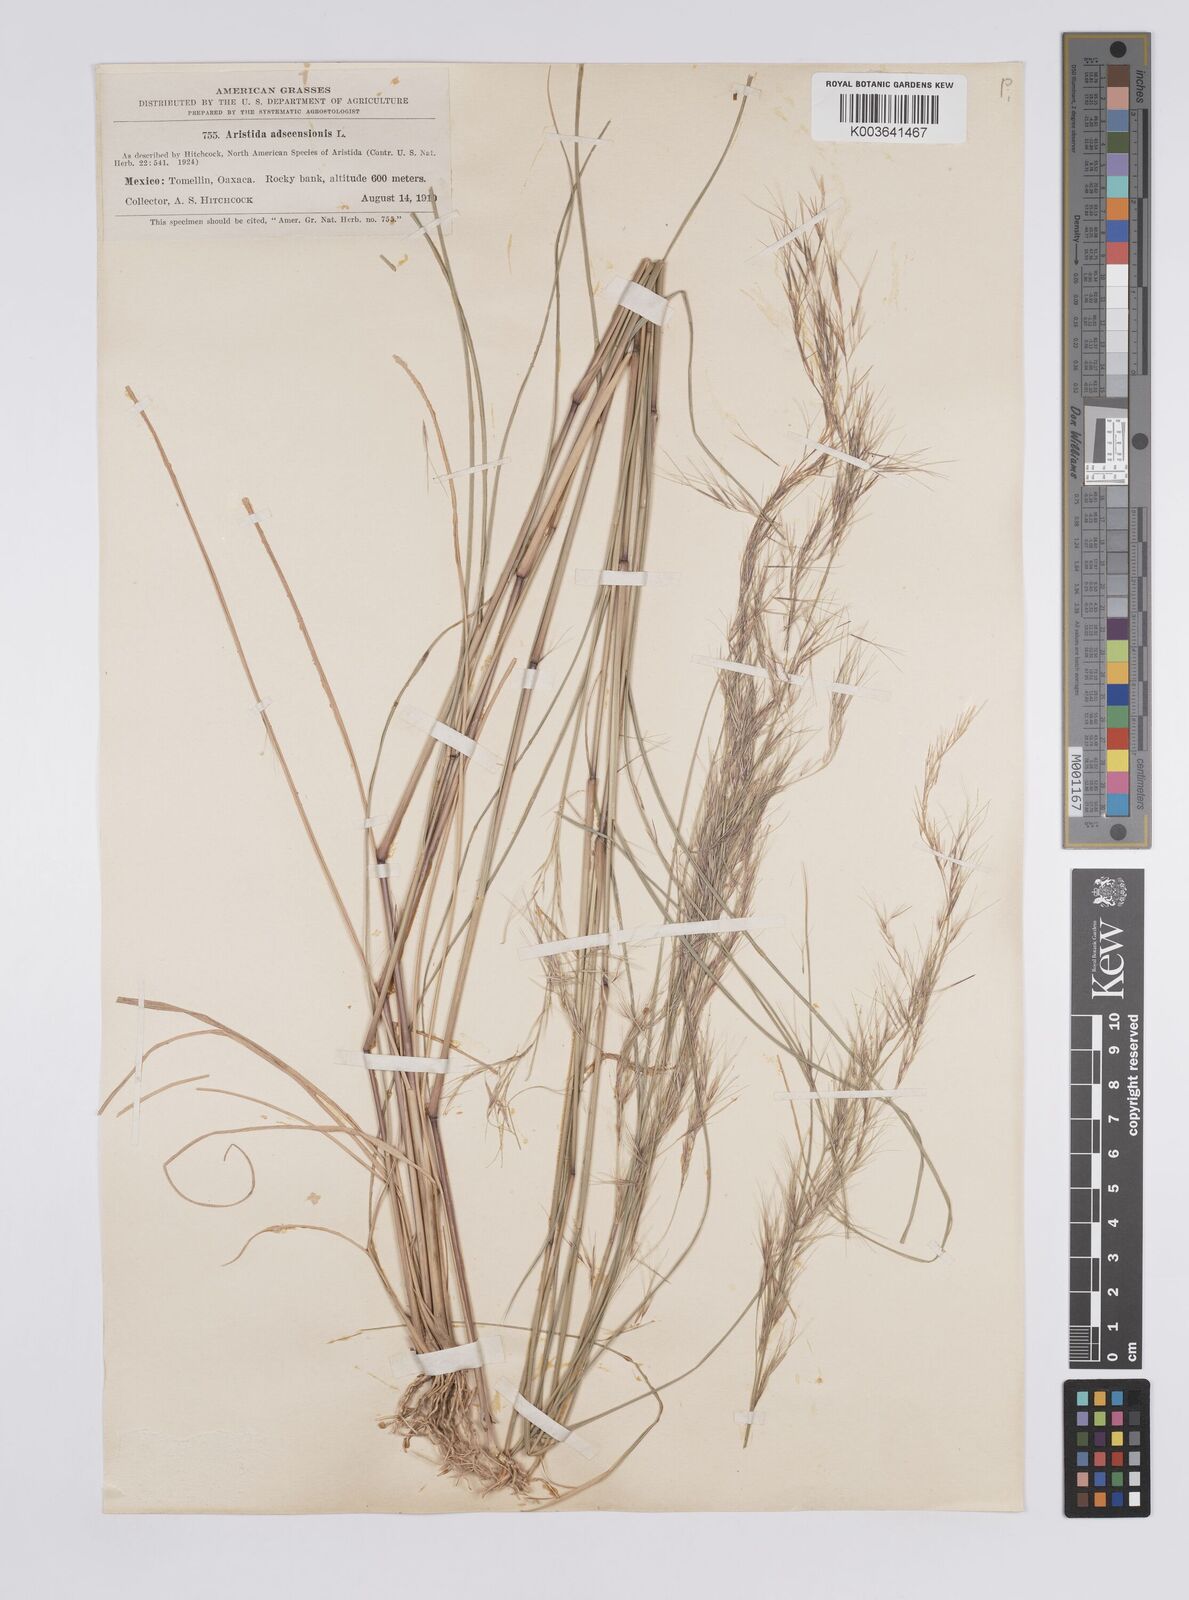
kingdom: Plantae
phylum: Tracheophyta
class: Liliopsida
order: Poales
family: Poaceae
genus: Aristida
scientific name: Aristida adscensionis
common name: Sixweeks threeawn
